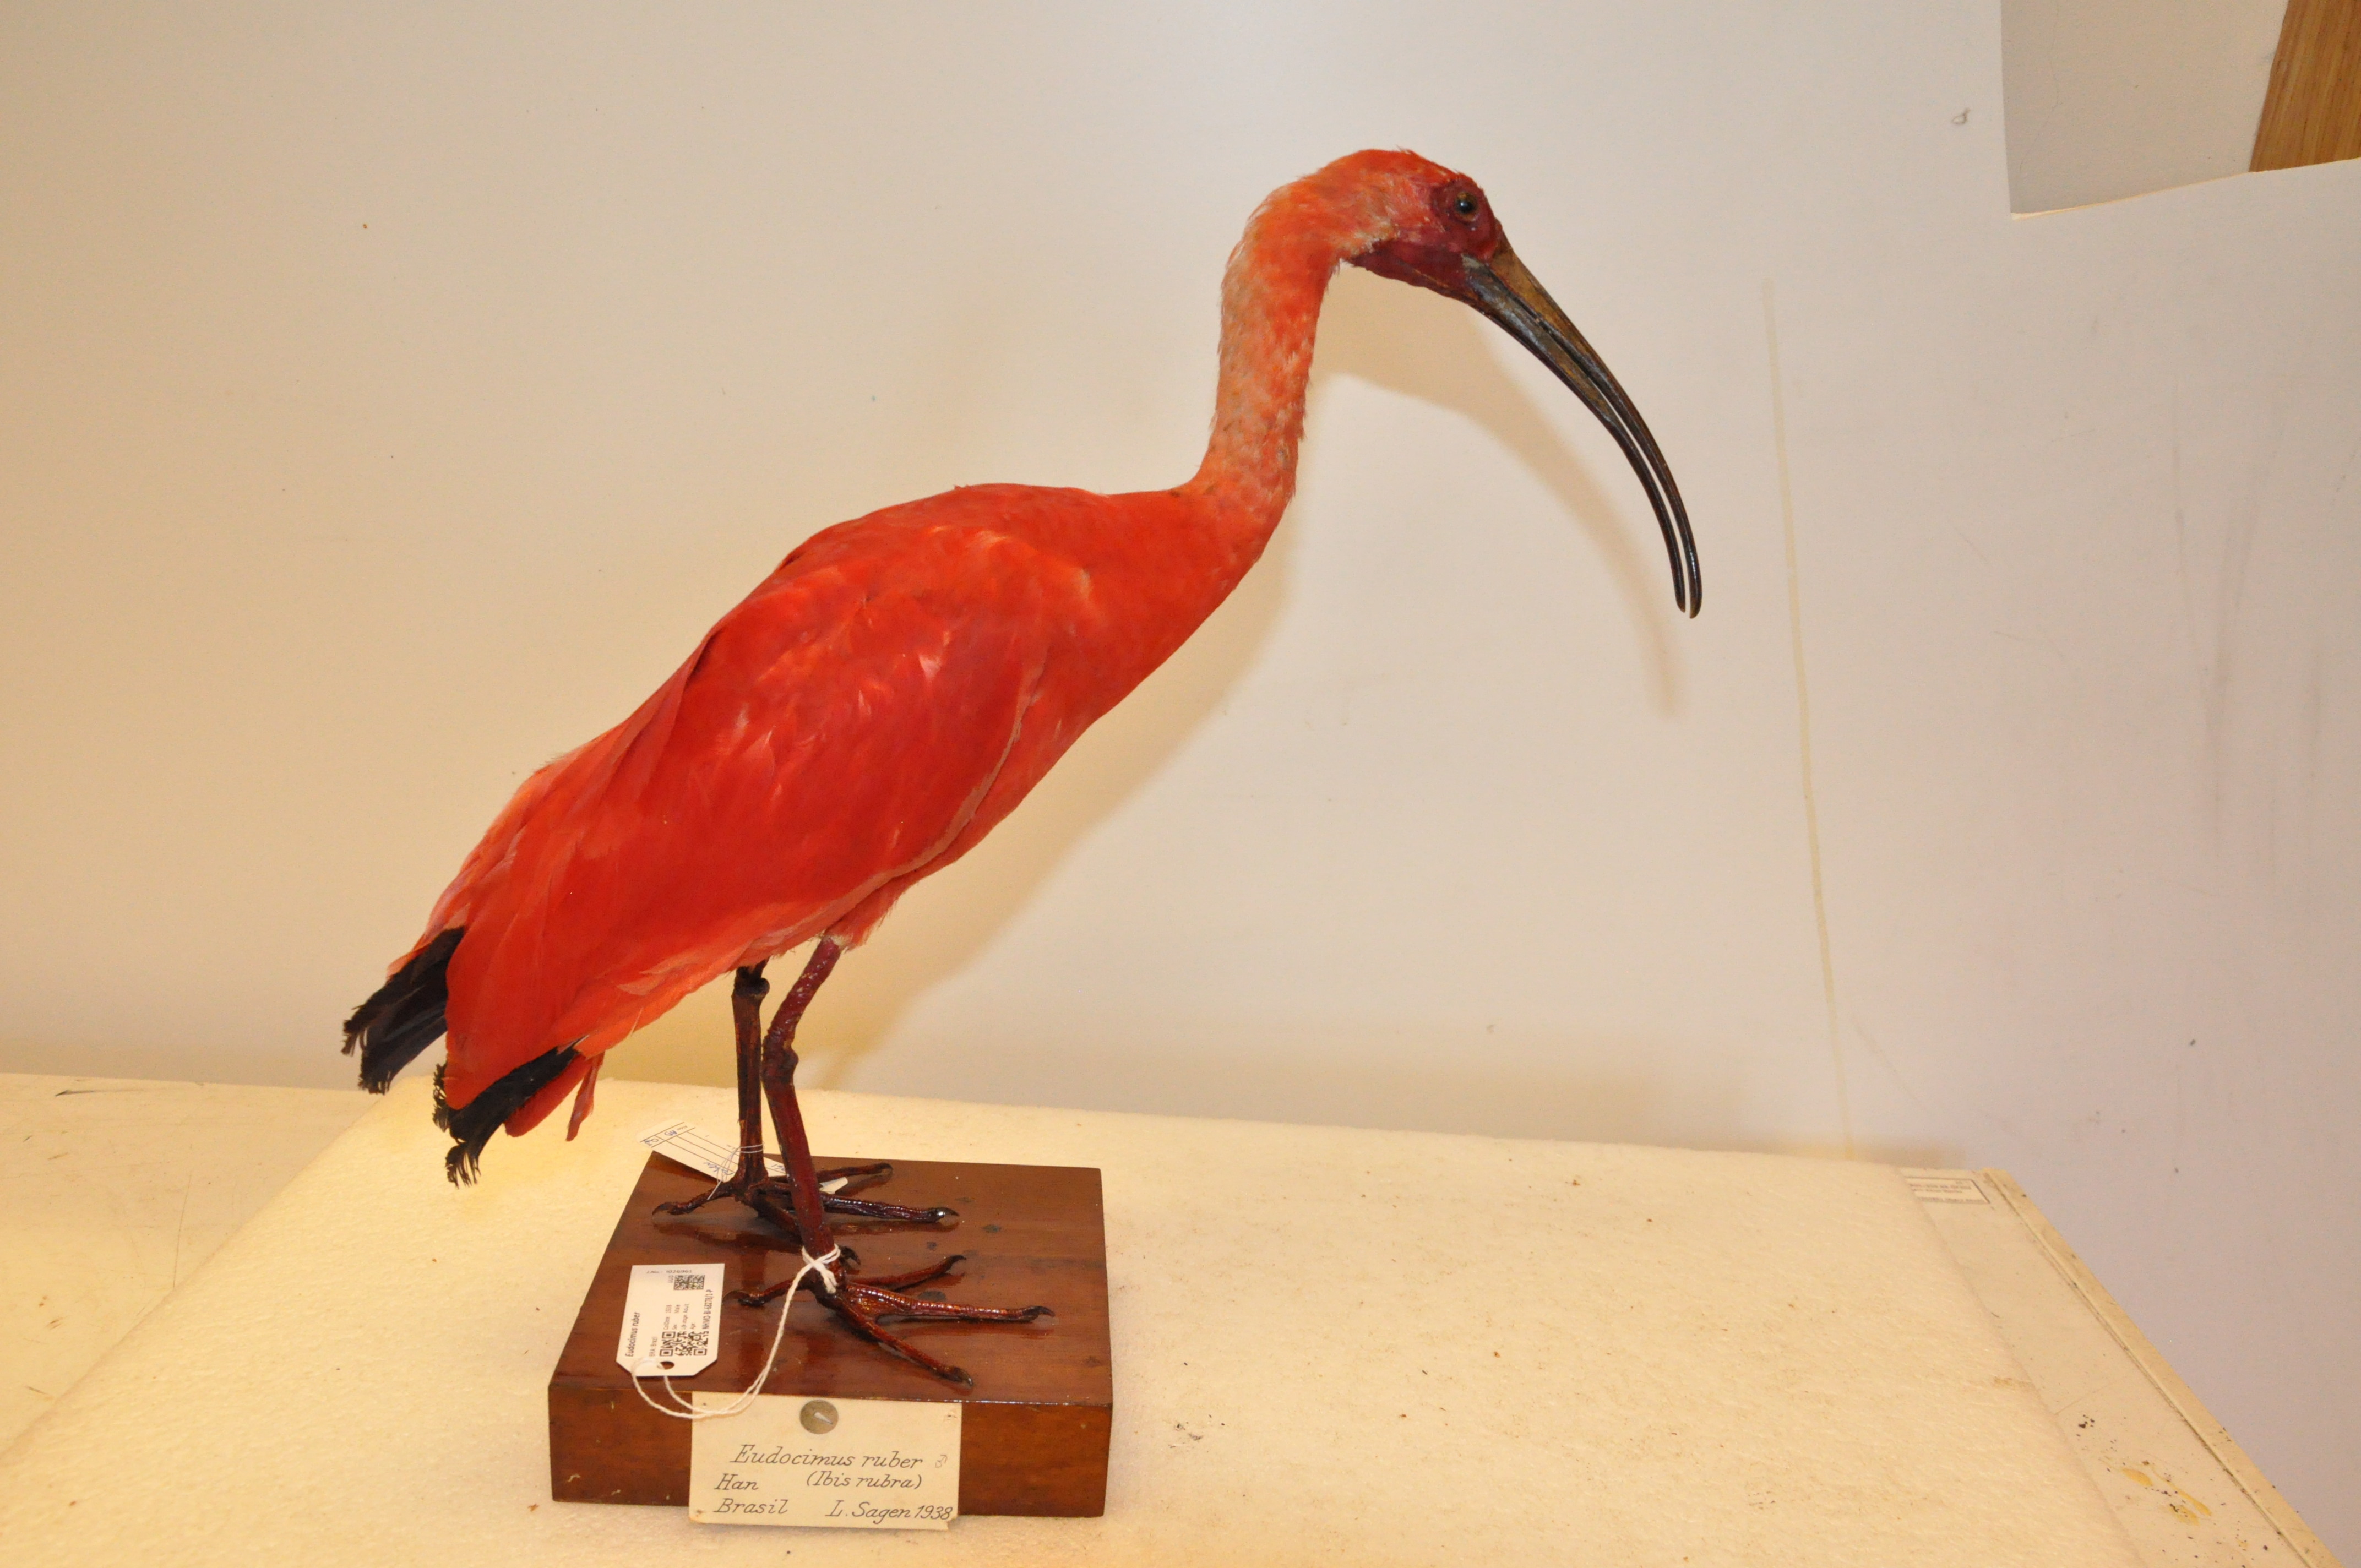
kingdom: Animalia
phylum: Chordata
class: Aves
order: Pelecaniformes
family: Threskiornithidae
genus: Eudocimus
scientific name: Eudocimus ruber
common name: Scarlet ibis
